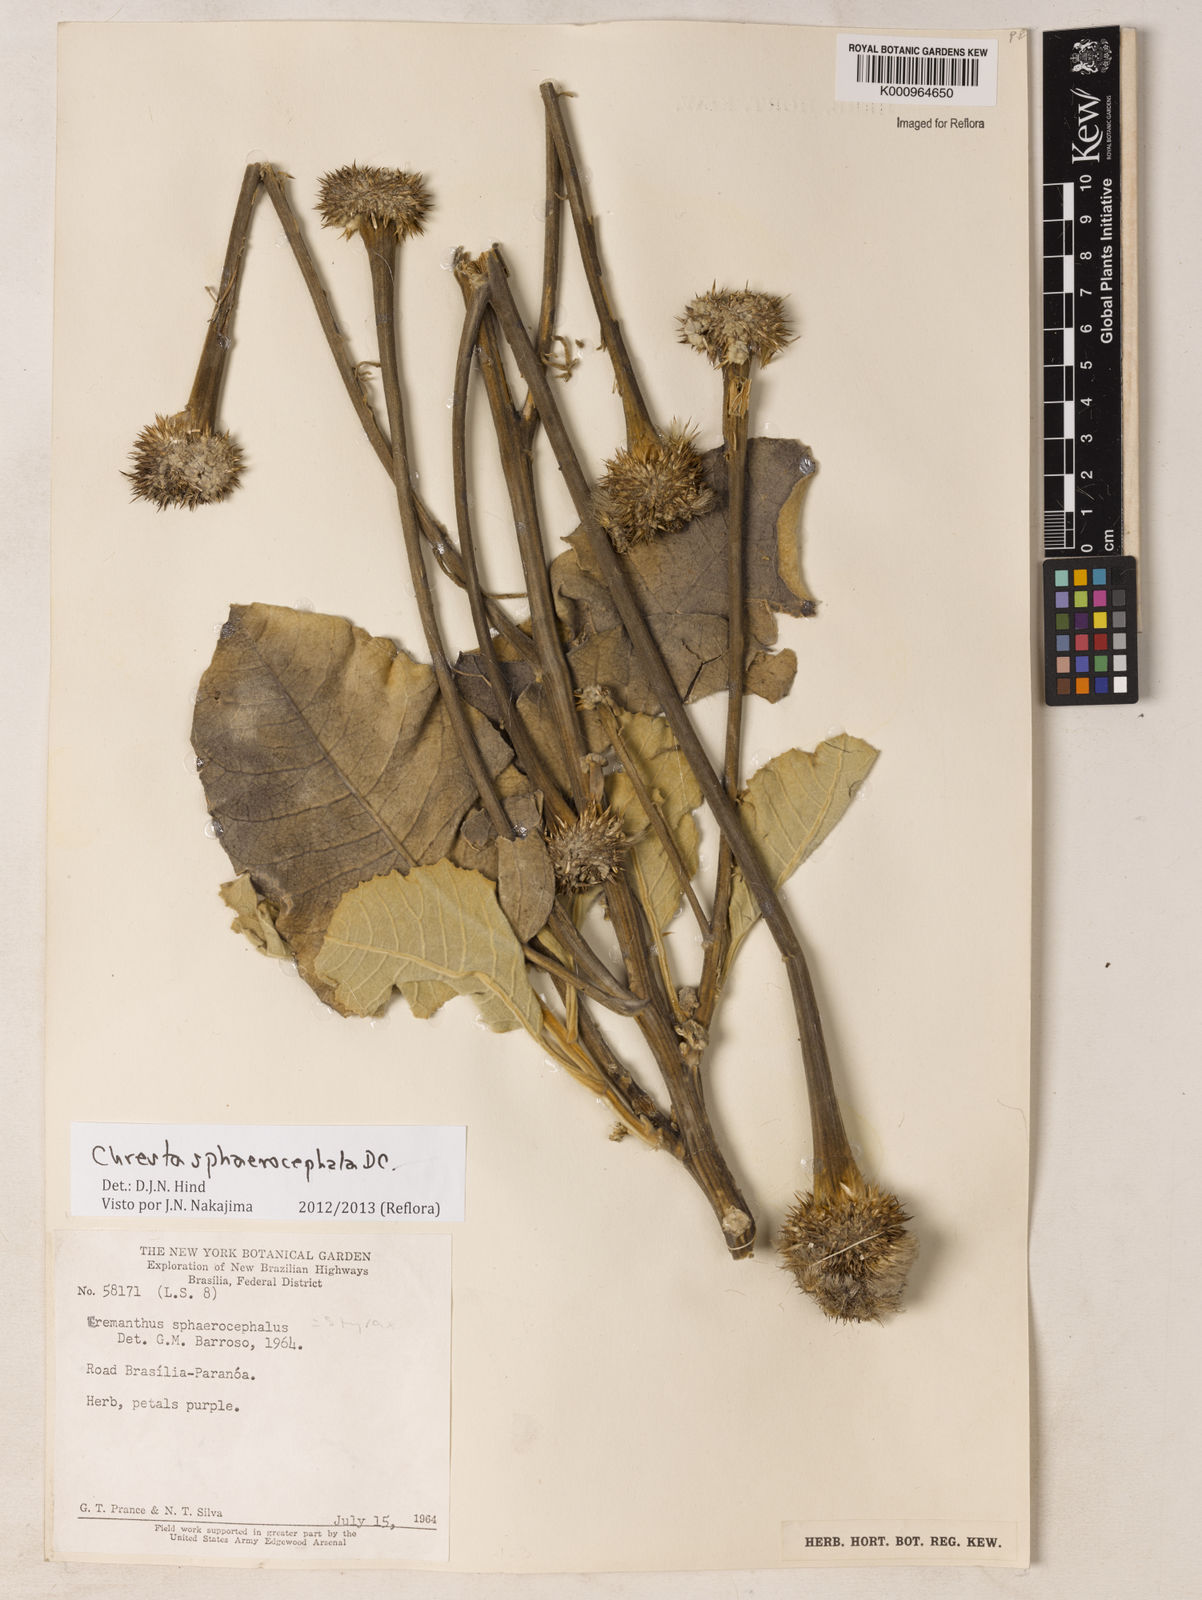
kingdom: Plantae
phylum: Tracheophyta
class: Magnoliopsida
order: Asterales
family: Asteraceae
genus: Chresta
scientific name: Chresta sphaerocephala
